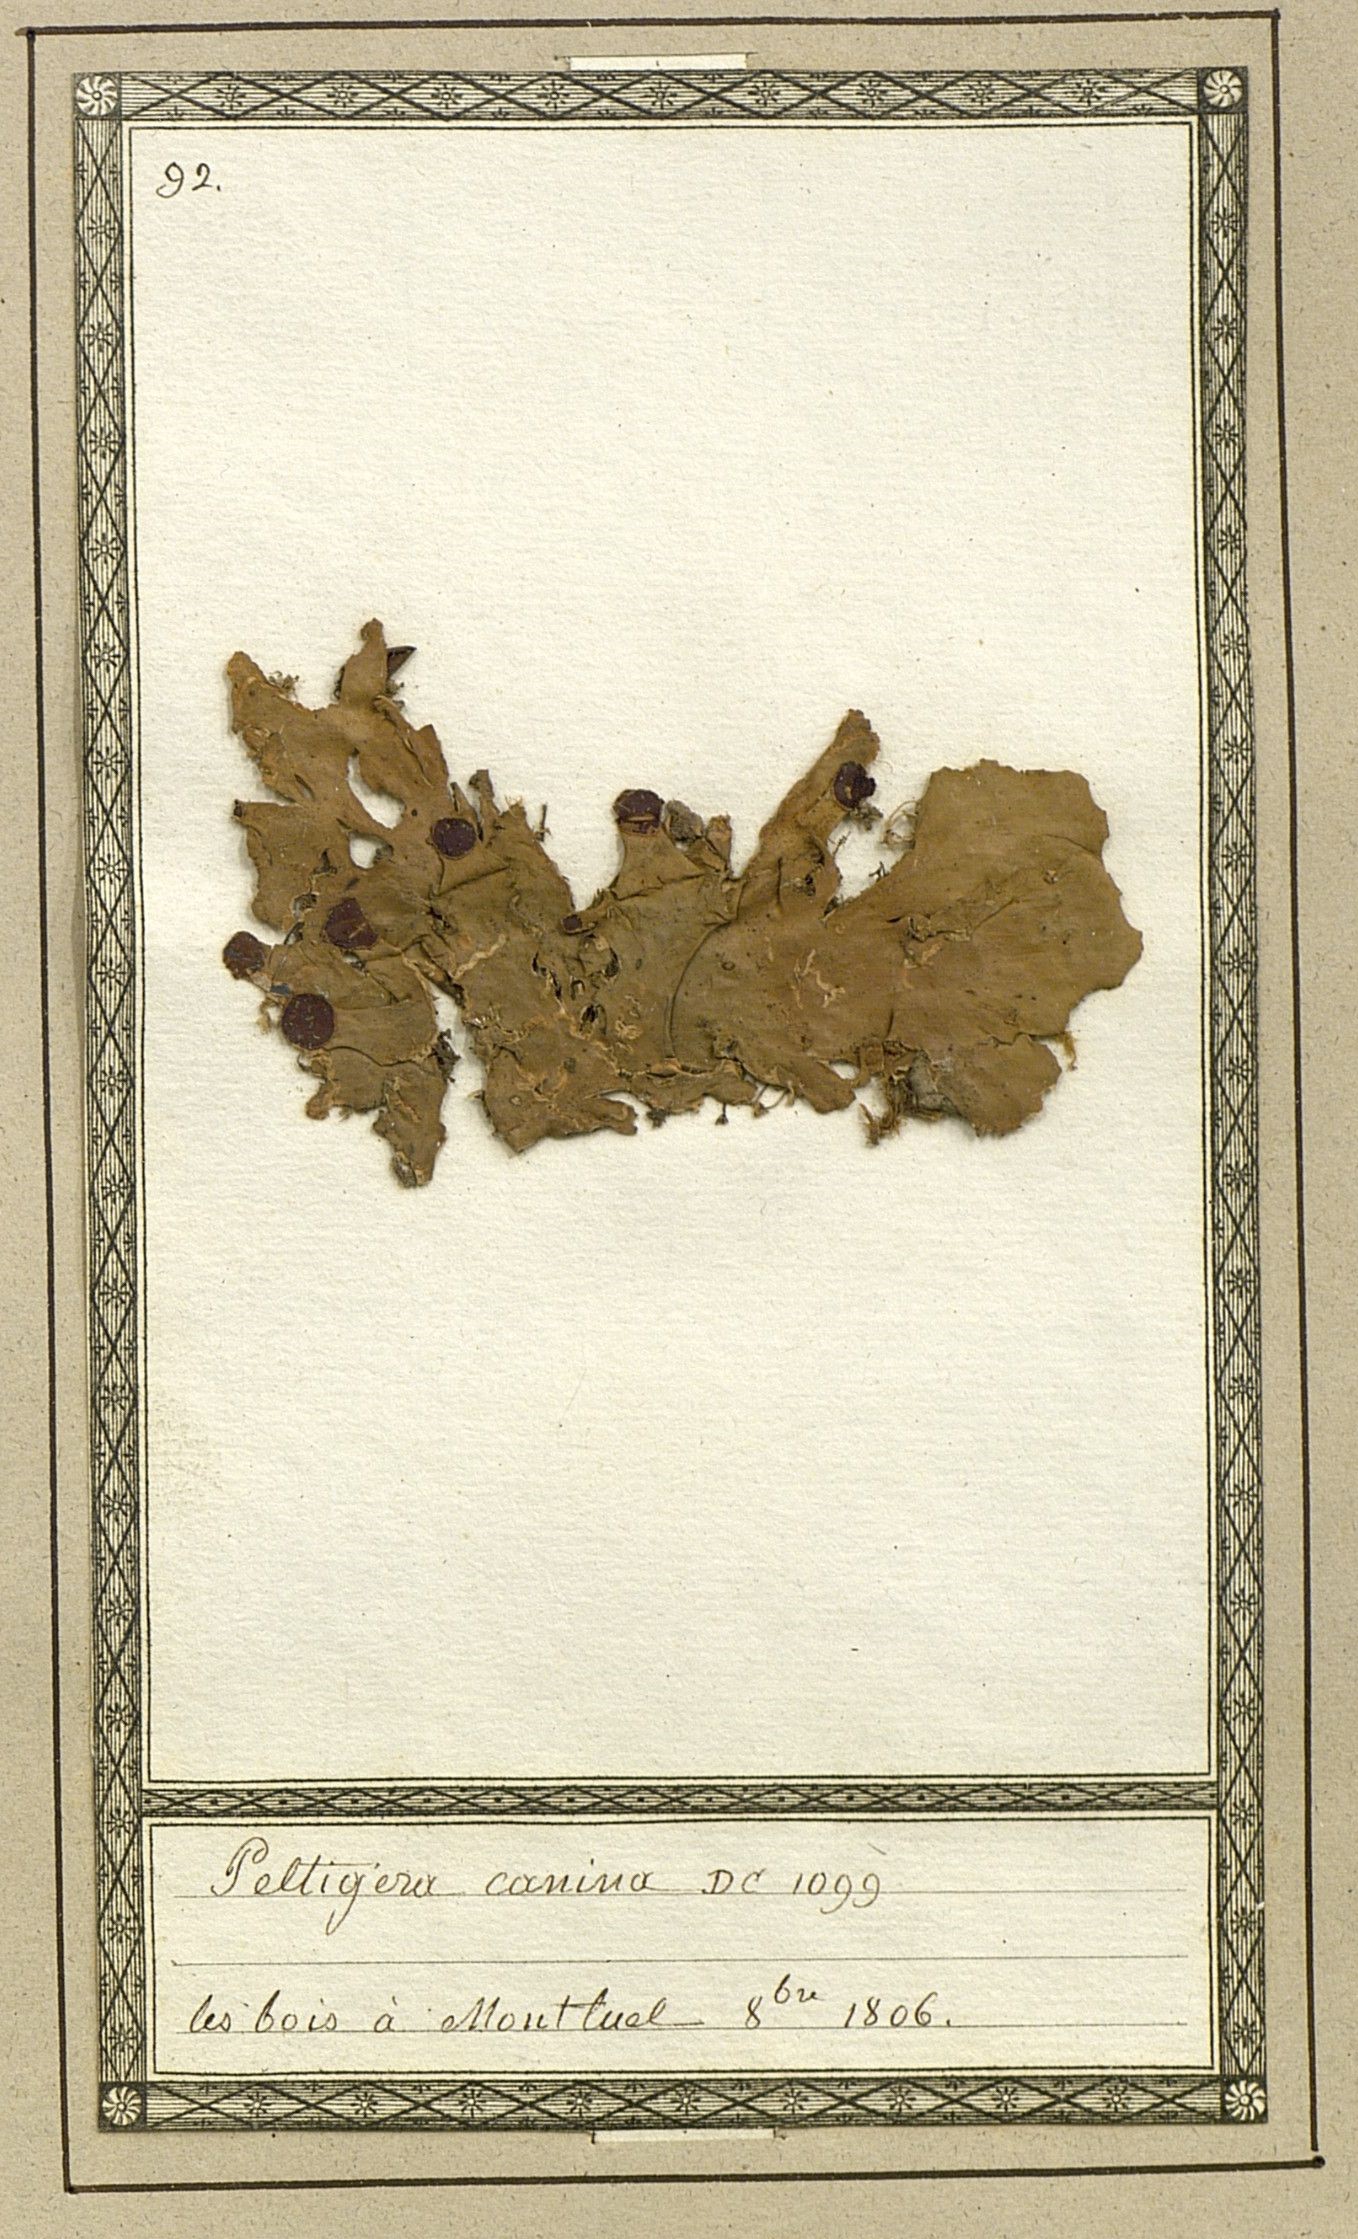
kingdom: Fungi
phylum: Ascomycota
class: Lecanoromycetes
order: Peltigerales
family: Peltigeraceae
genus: Peltigera
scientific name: Peltigera canina
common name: Dog pelt lichen
